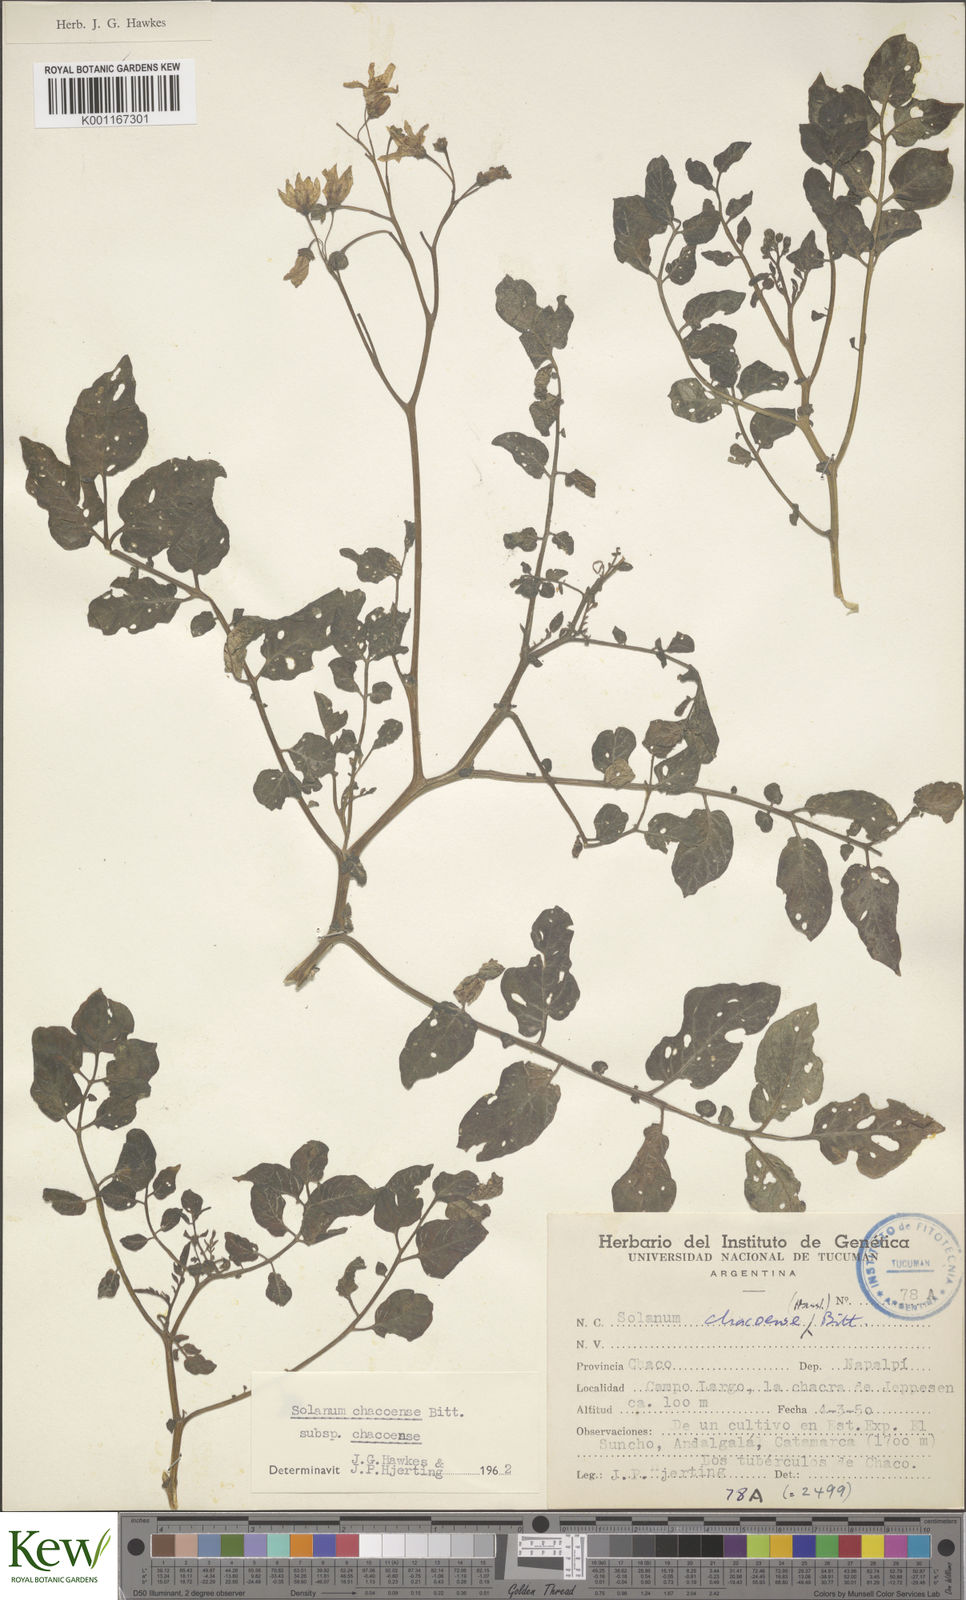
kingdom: Plantae
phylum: Tracheophyta
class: Magnoliopsida
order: Solanales
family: Solanaceae
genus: Solanum
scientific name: Solanum
